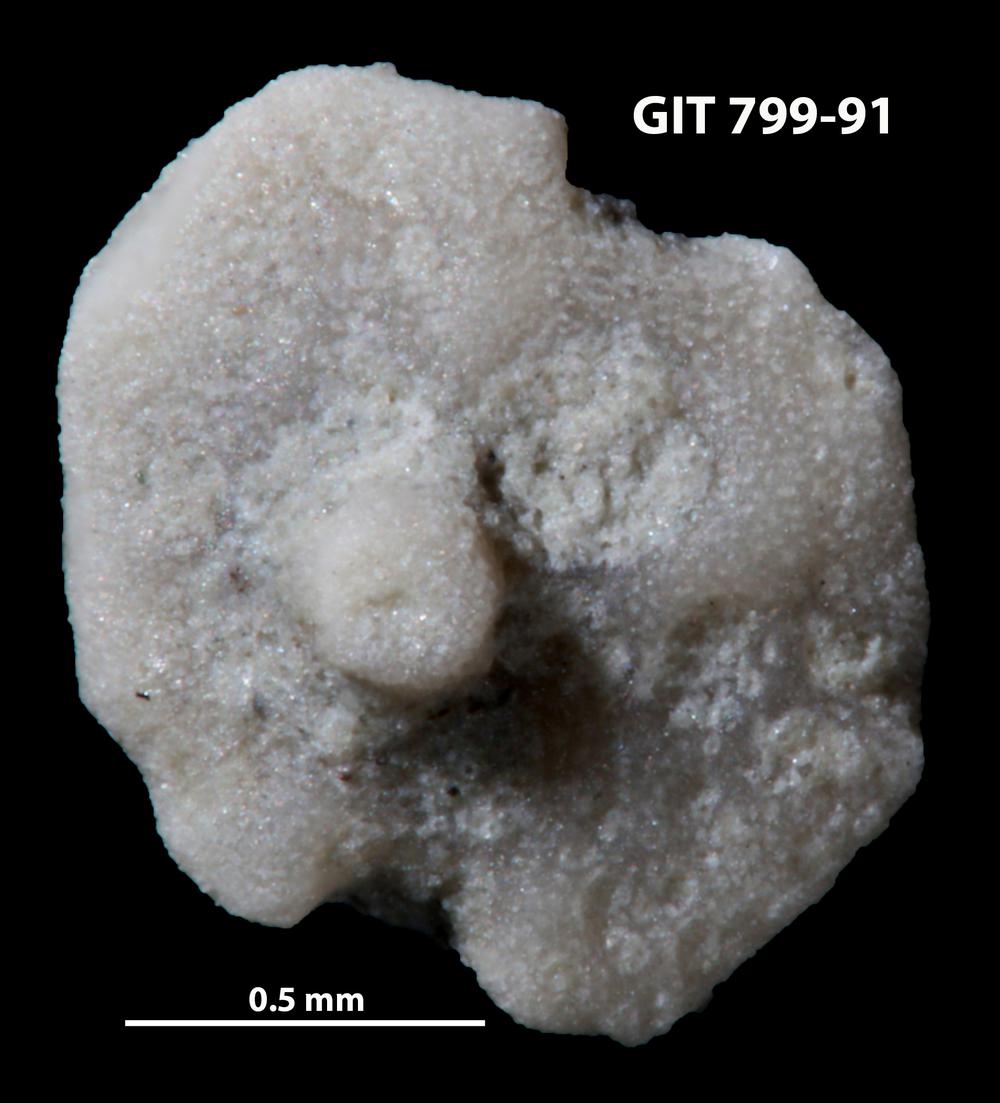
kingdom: Animalia
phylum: Echinodermata
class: Echinoidea
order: Bothriocidaroida
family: Bothriocidaridae
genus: Neobothriocidaris
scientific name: Neobothriocidaris
